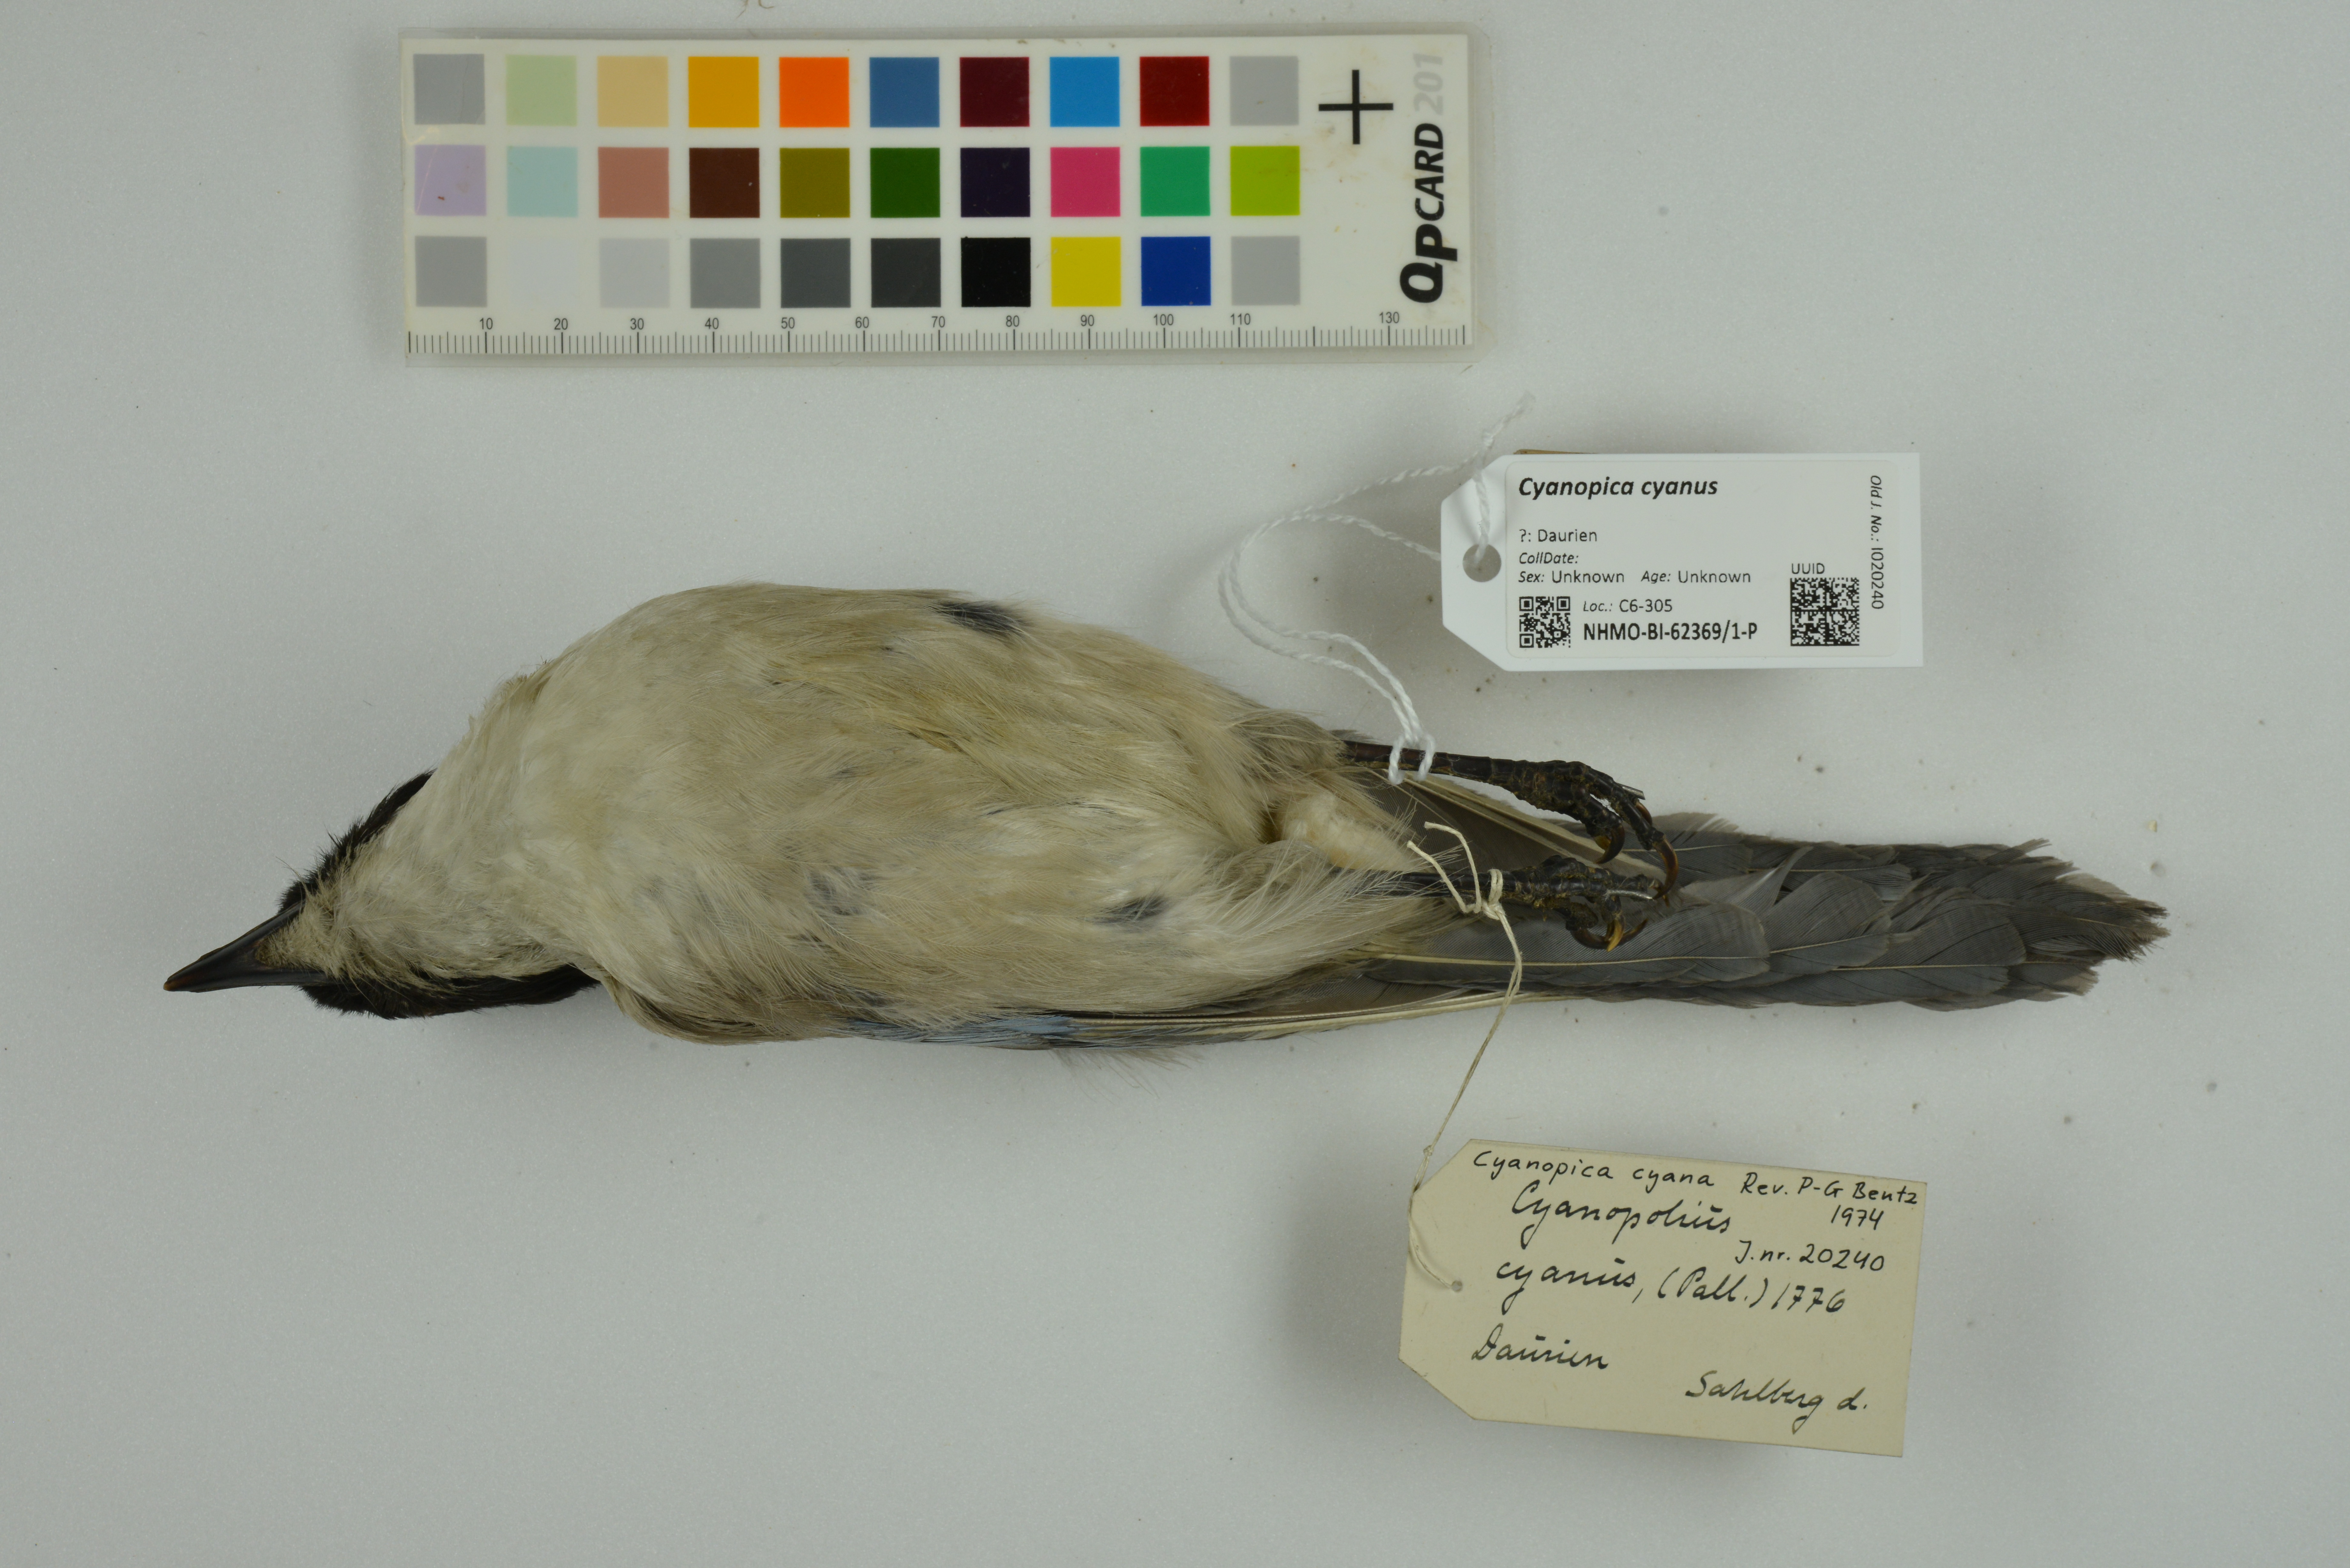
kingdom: Animalia
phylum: Chordata
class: Aves
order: Passeriformes
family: Corvidae
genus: Cyanopica
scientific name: Cyanopica cyanus
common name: Azure-winged magpie
